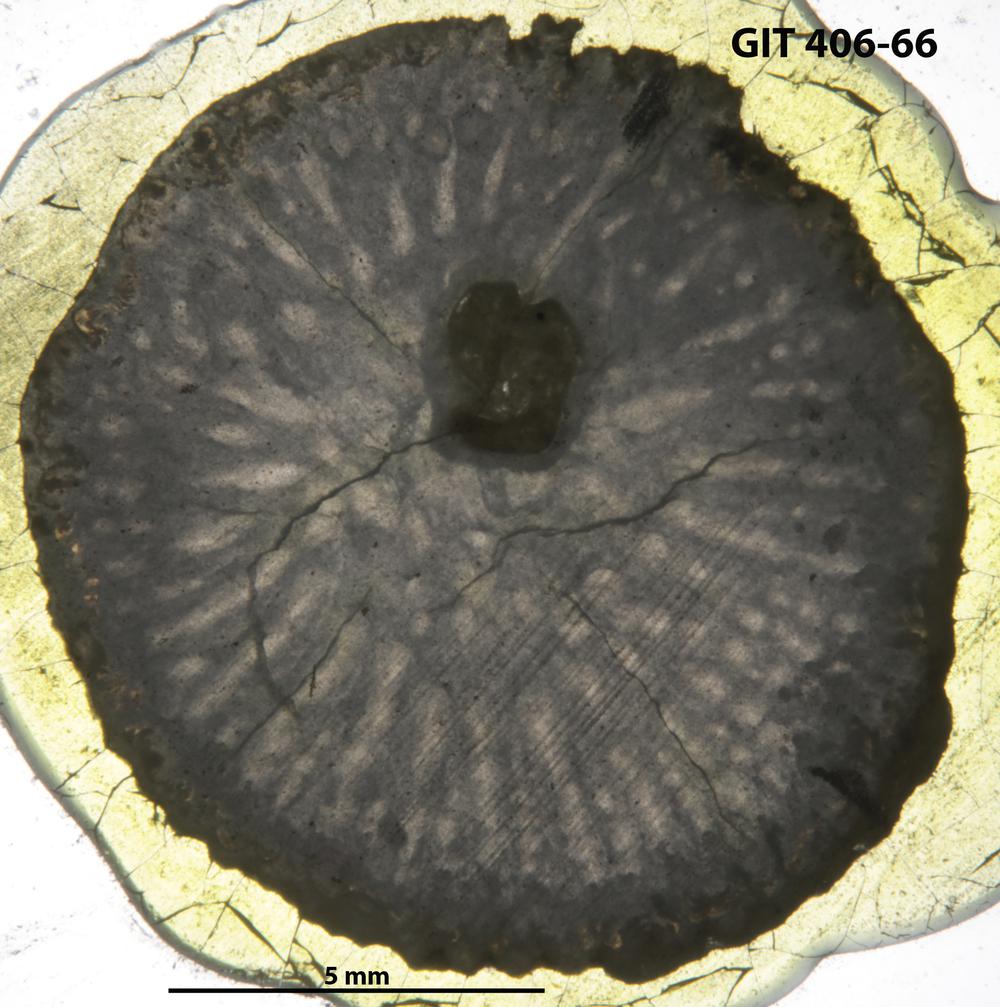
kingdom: Animalia
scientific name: Animalia
